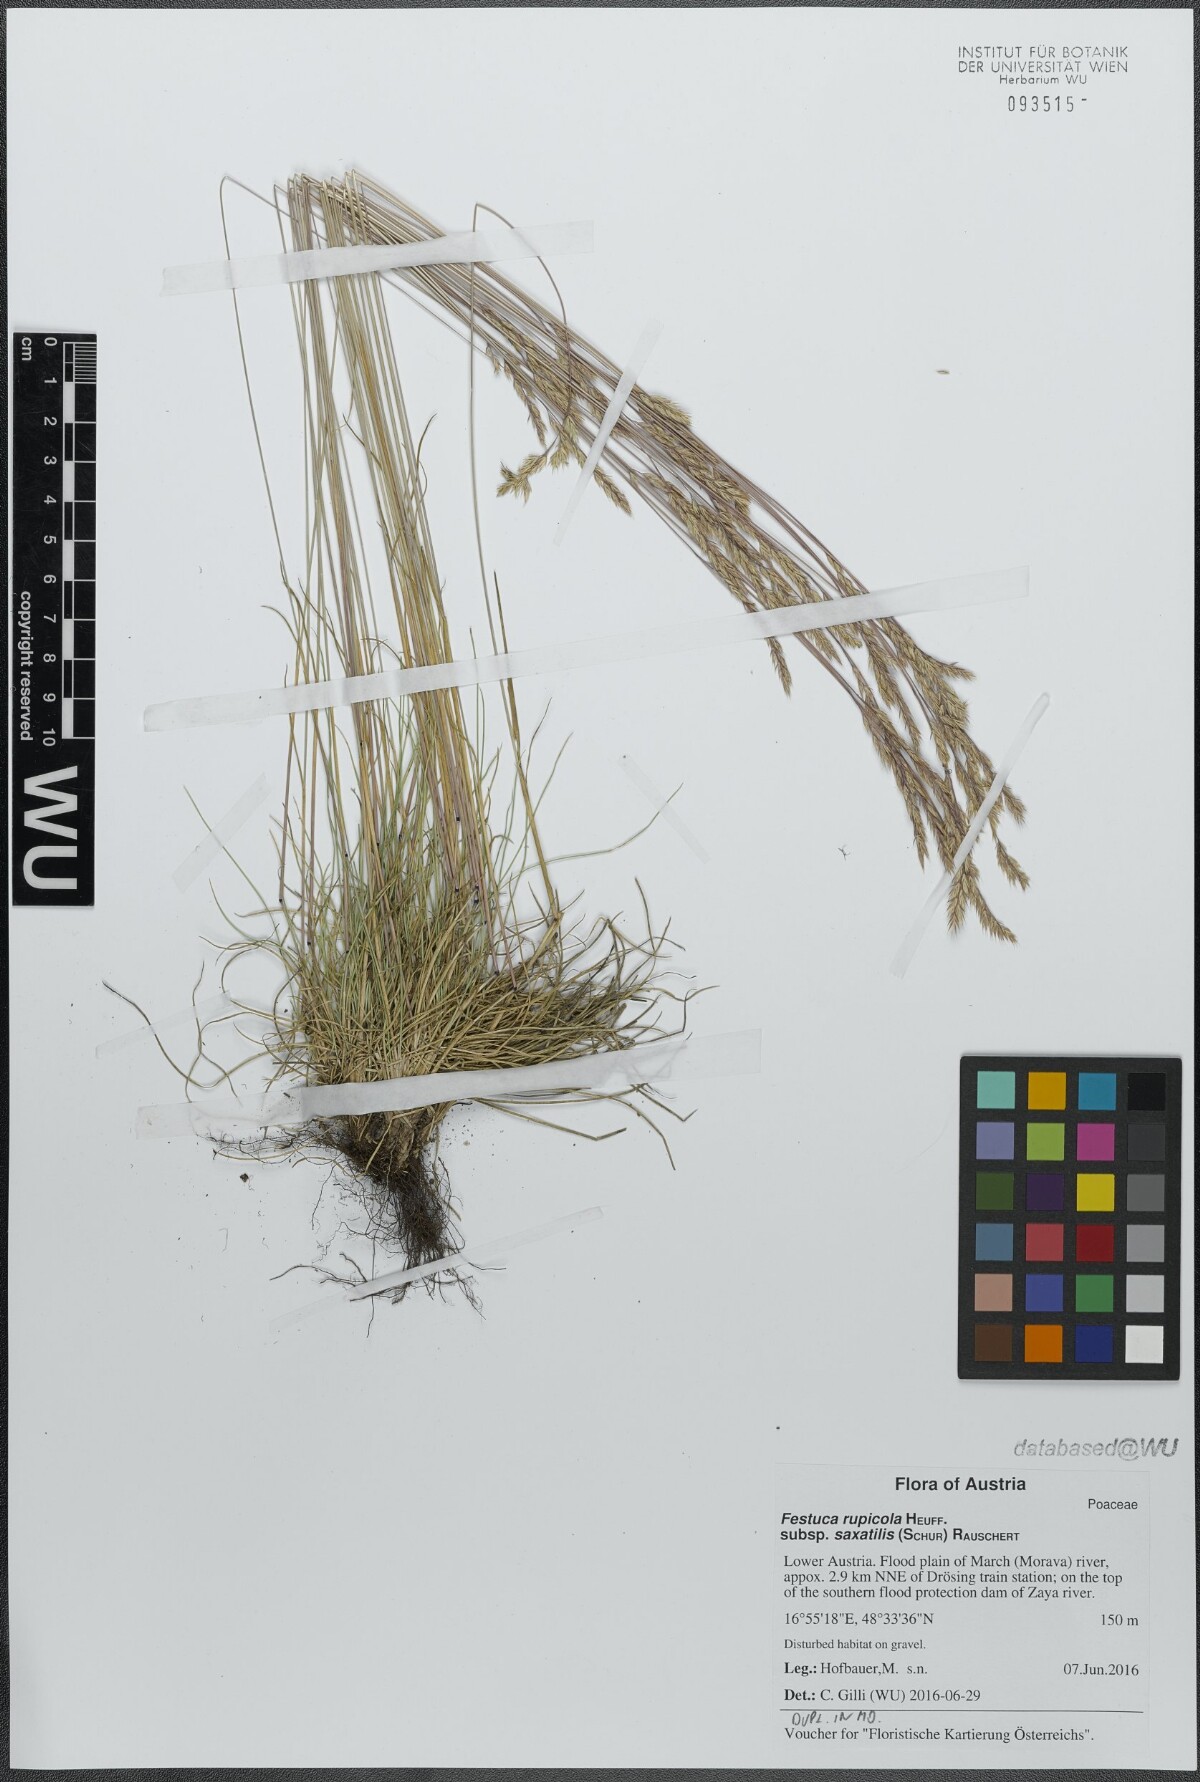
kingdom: Plantae
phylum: Tracheophyta
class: Liliopsida
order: Poales
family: Poaceae
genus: Festuca
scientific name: Festuca saxatilis
